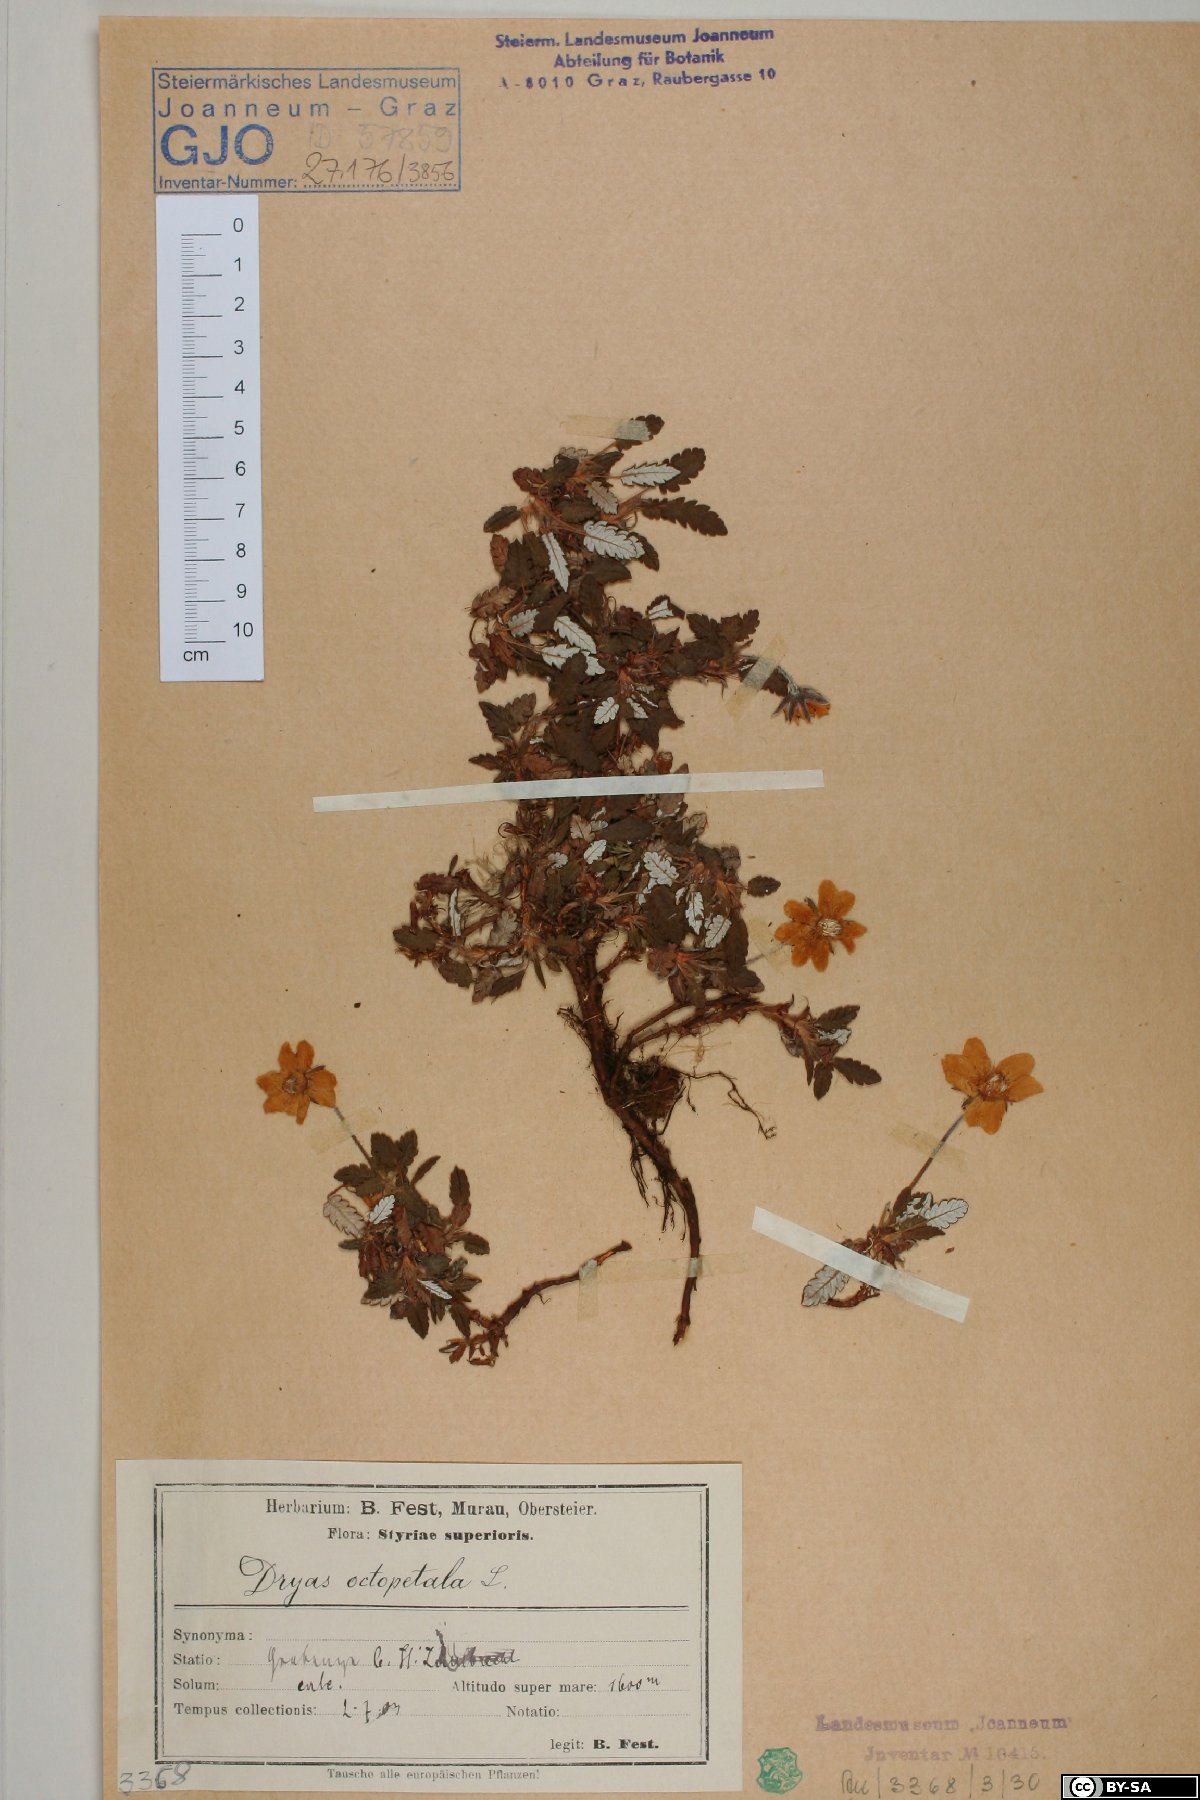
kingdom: Plantae
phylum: Tracheophyta
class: Magnoliopsida
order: Rosales
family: Rosaceae
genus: Dryas
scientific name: Dryas octopetala
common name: Eight-petal mountain-avens
